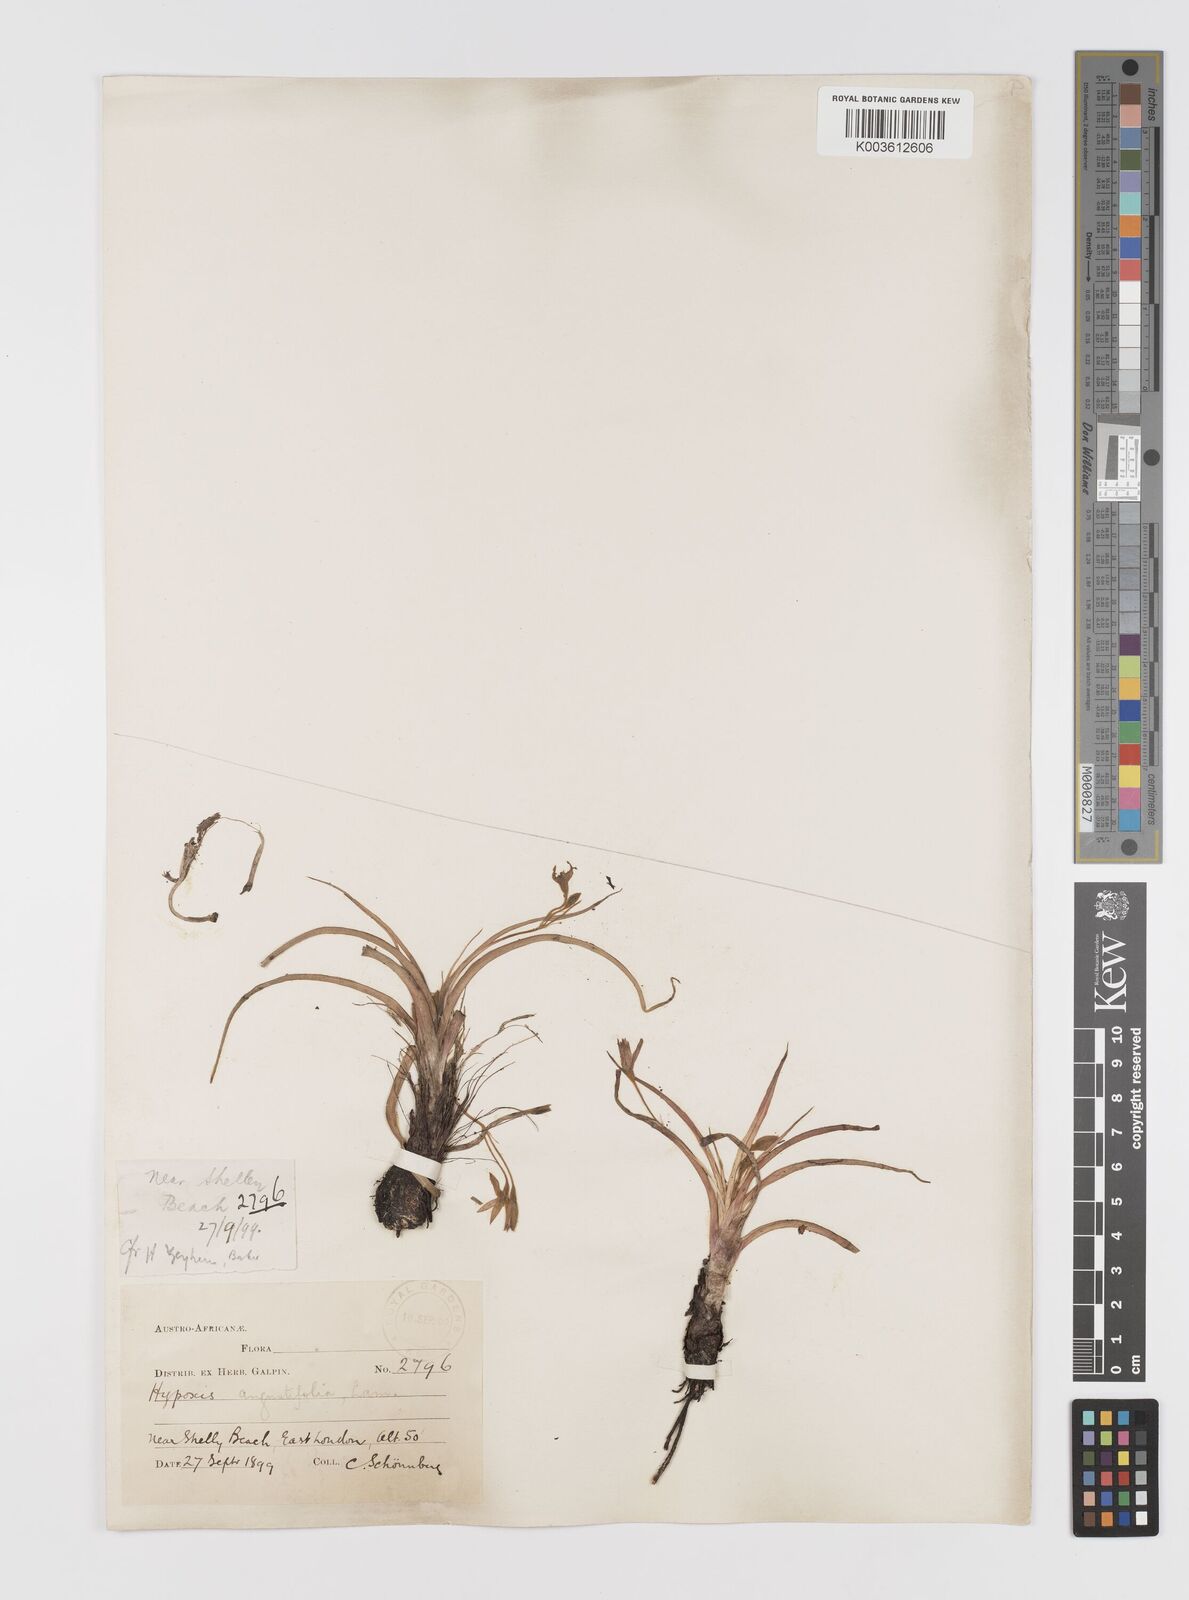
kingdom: Plantae
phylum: Tracheophyta
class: Liliopsida
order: Asparagales
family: Hypoxidaceae
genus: Hypoxis
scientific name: Hypoxis angustifolia
